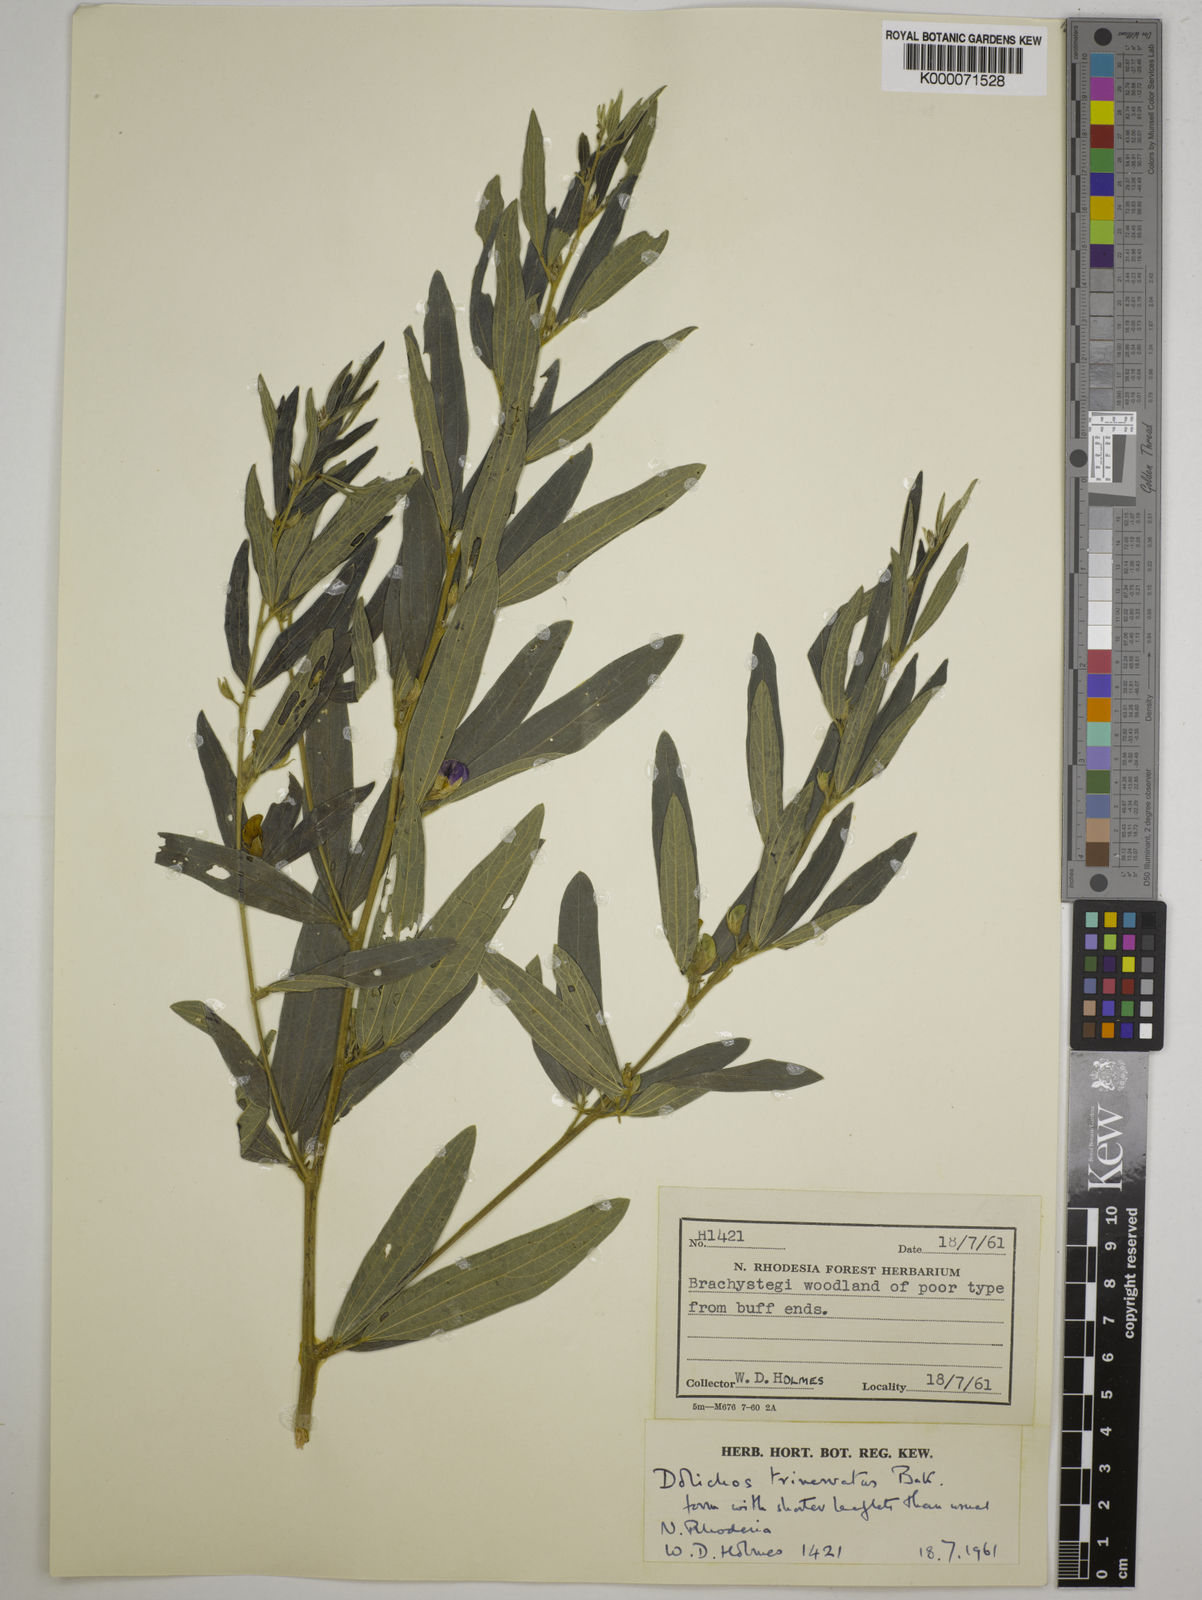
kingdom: Plantae
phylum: Tracheophyta
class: Magnoliopsida
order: Fabales
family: Fabaceae
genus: Dolichos
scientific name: Dolichos trinervatus
